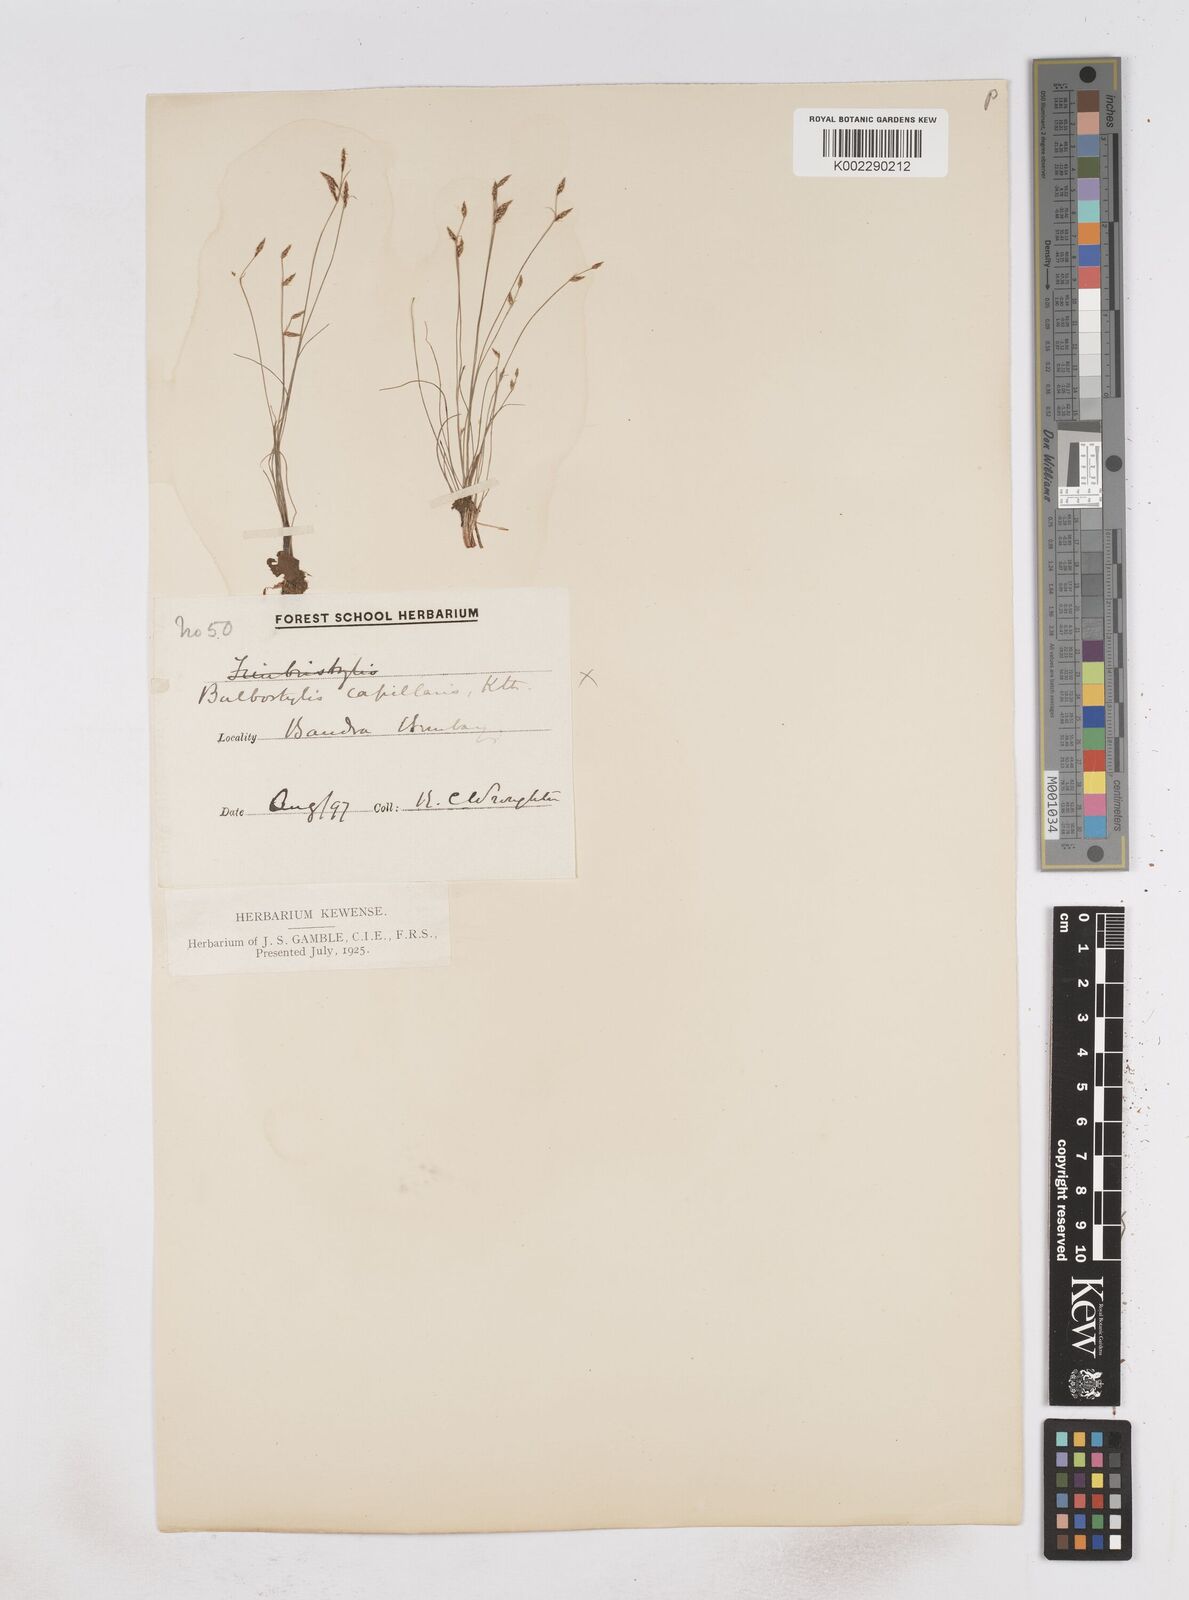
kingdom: Plantae
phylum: Tracheophyta
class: Liliopsida
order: Poales
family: Cyperaceae
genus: Fimbristylis
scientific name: Fimbristylis
